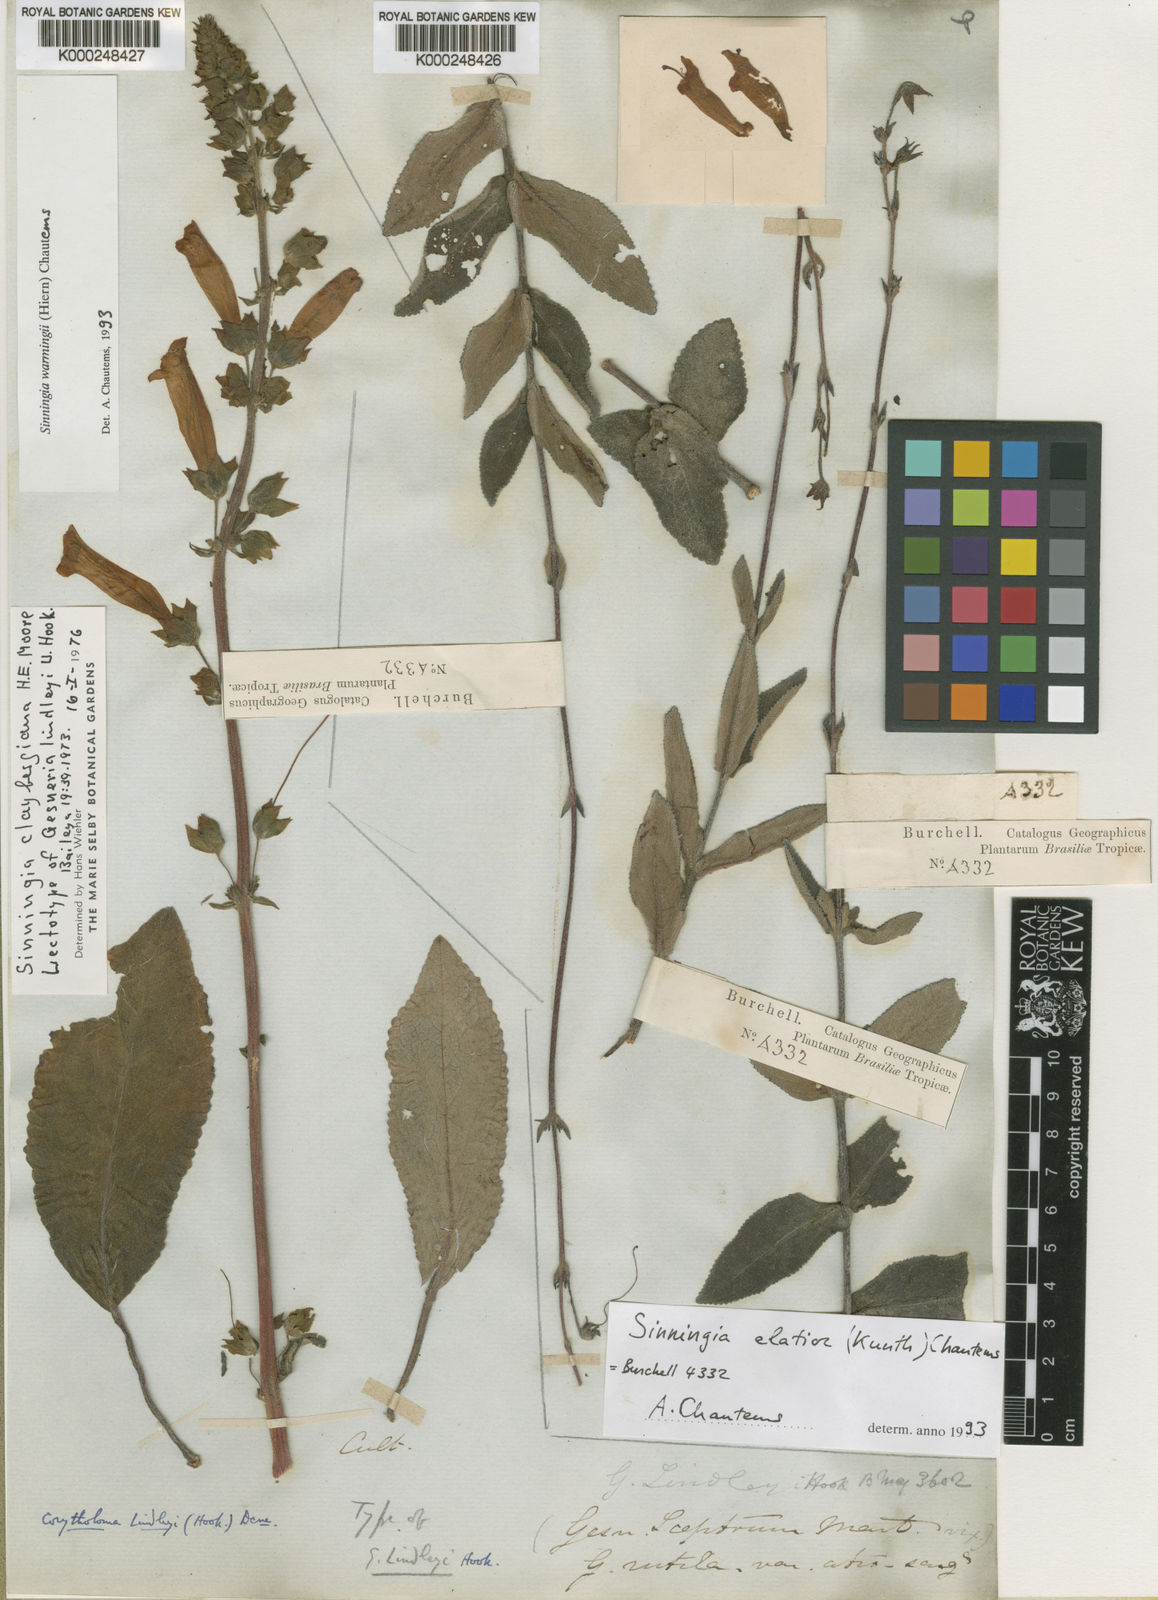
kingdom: Plantae
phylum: Tracheophyta
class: Magnoliopsida
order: Lamiales
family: Gesneriaceae
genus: Sinningia
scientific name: Sinningia warmingii
